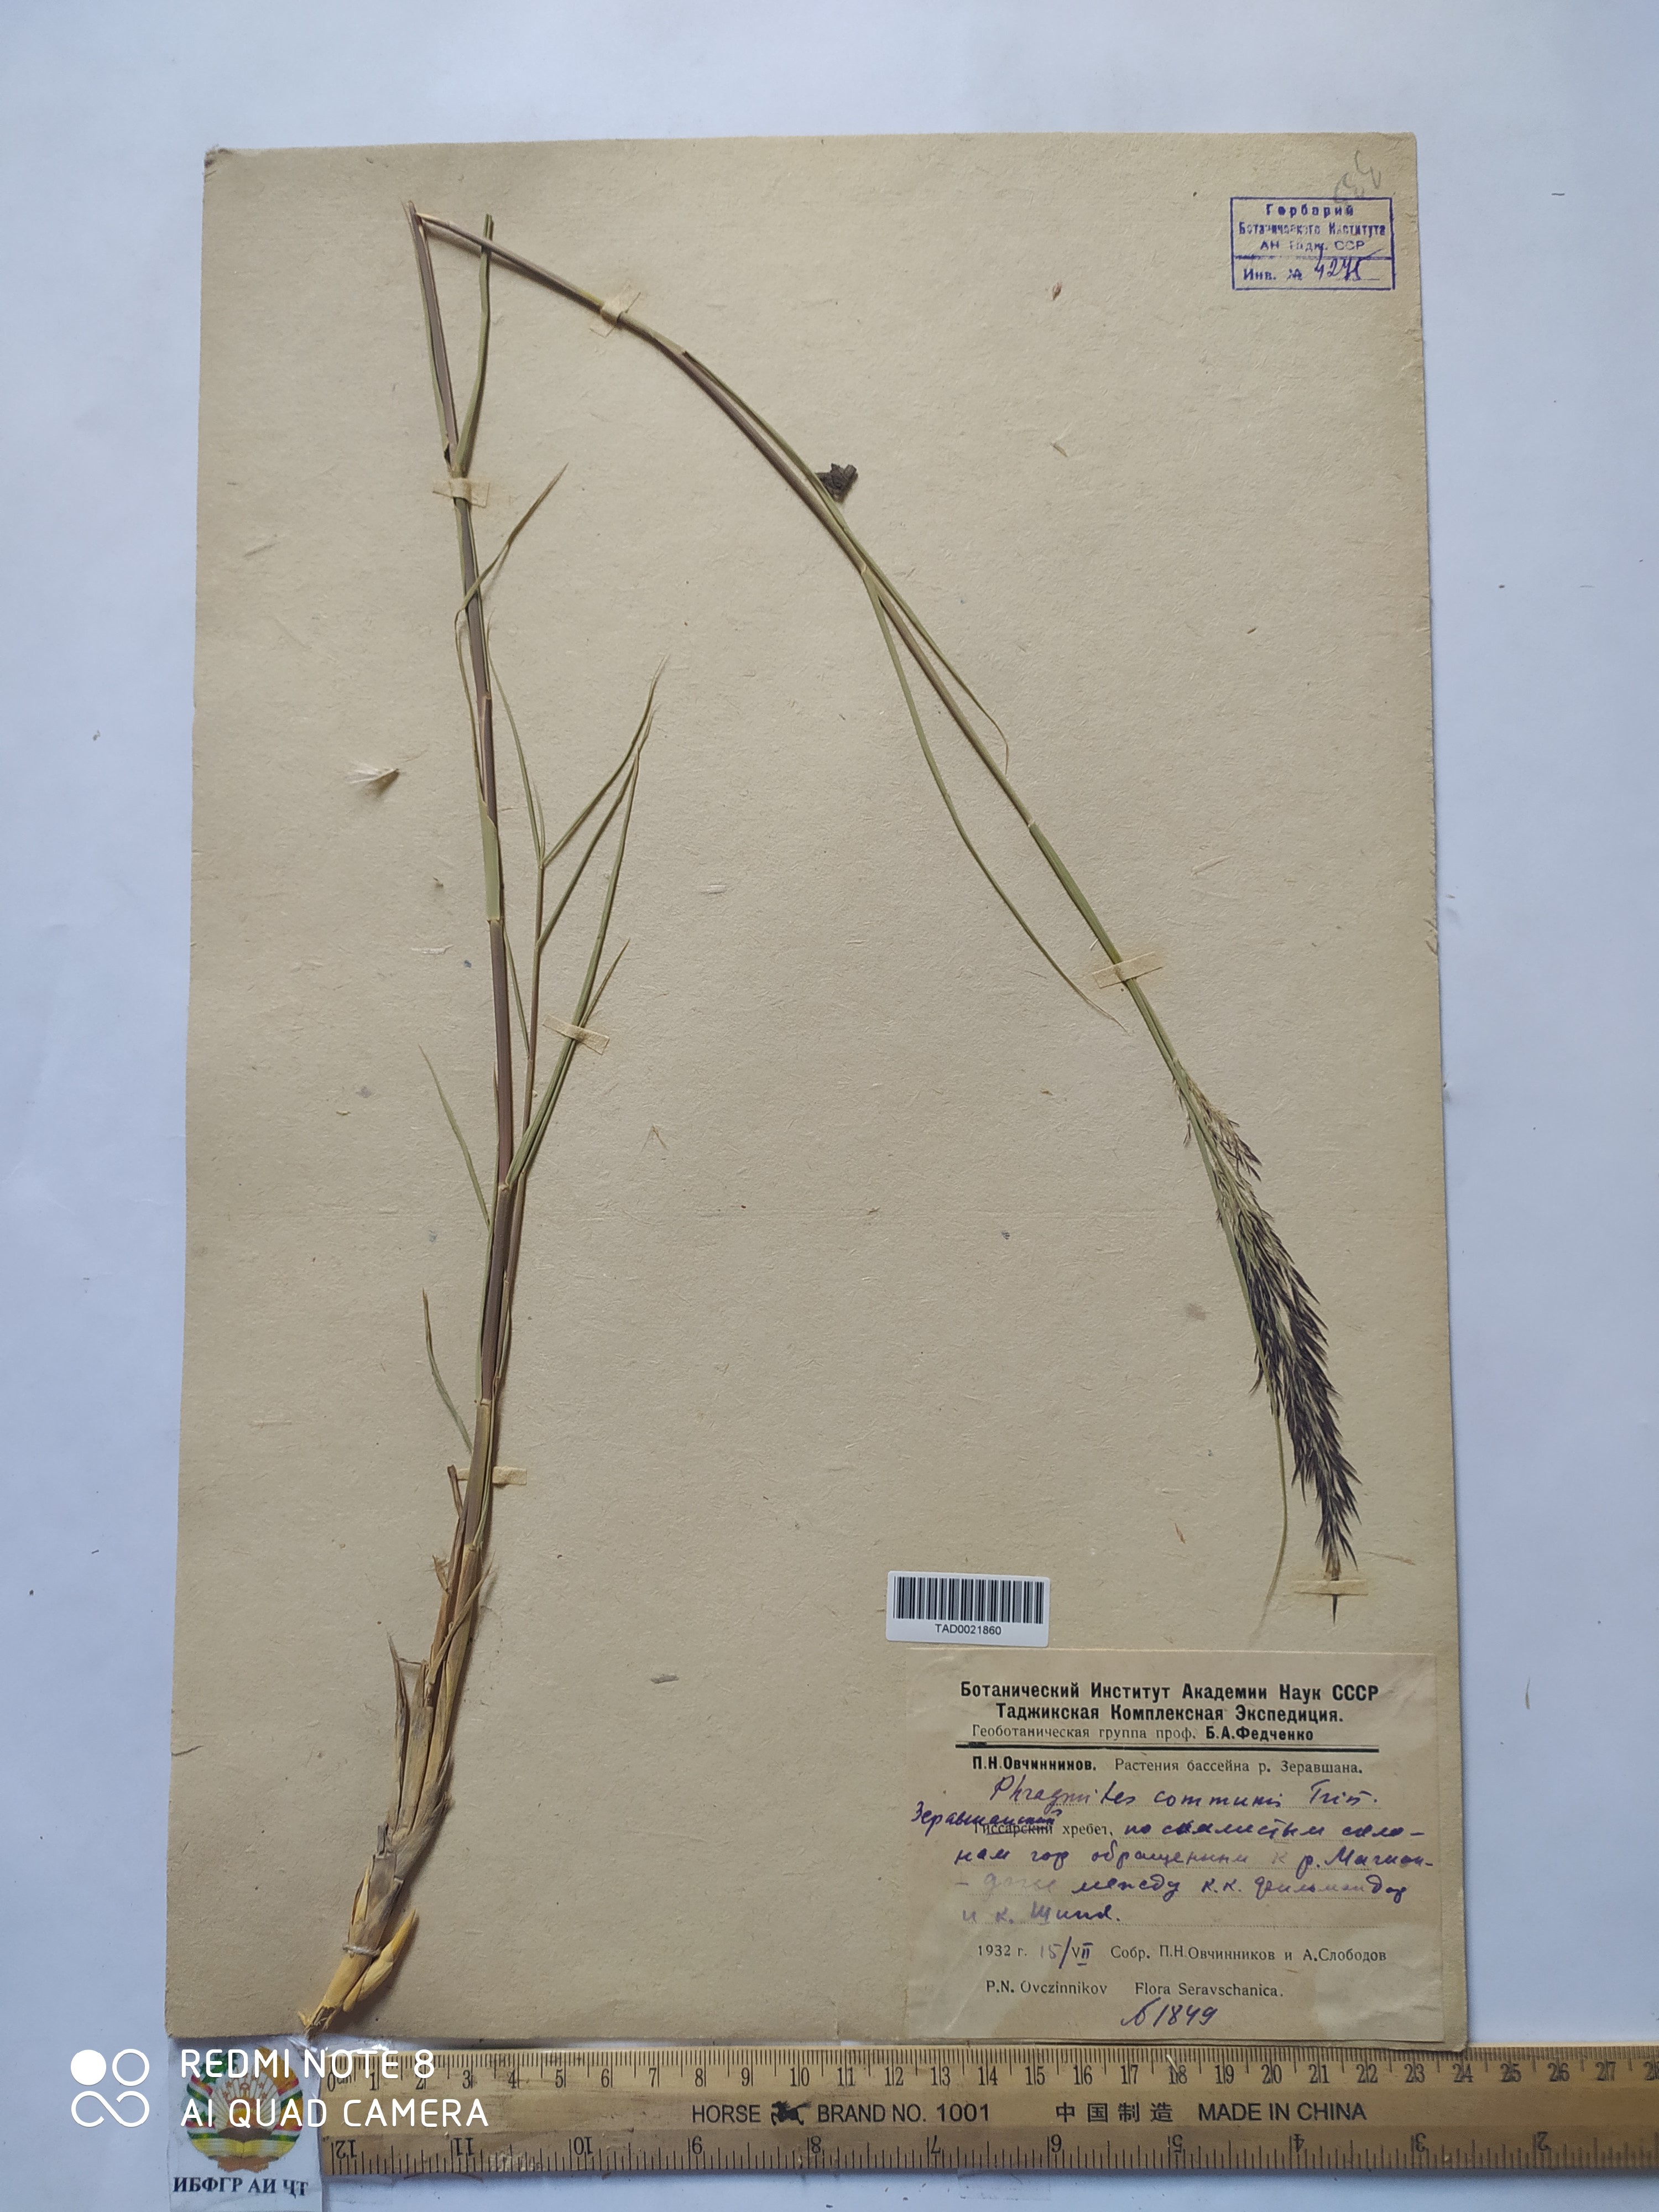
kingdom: Plantae
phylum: Tracheophyta
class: Liliopsida
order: Poales
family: Poaceae
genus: Phragmites
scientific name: Phragmites australis
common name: Common reed
